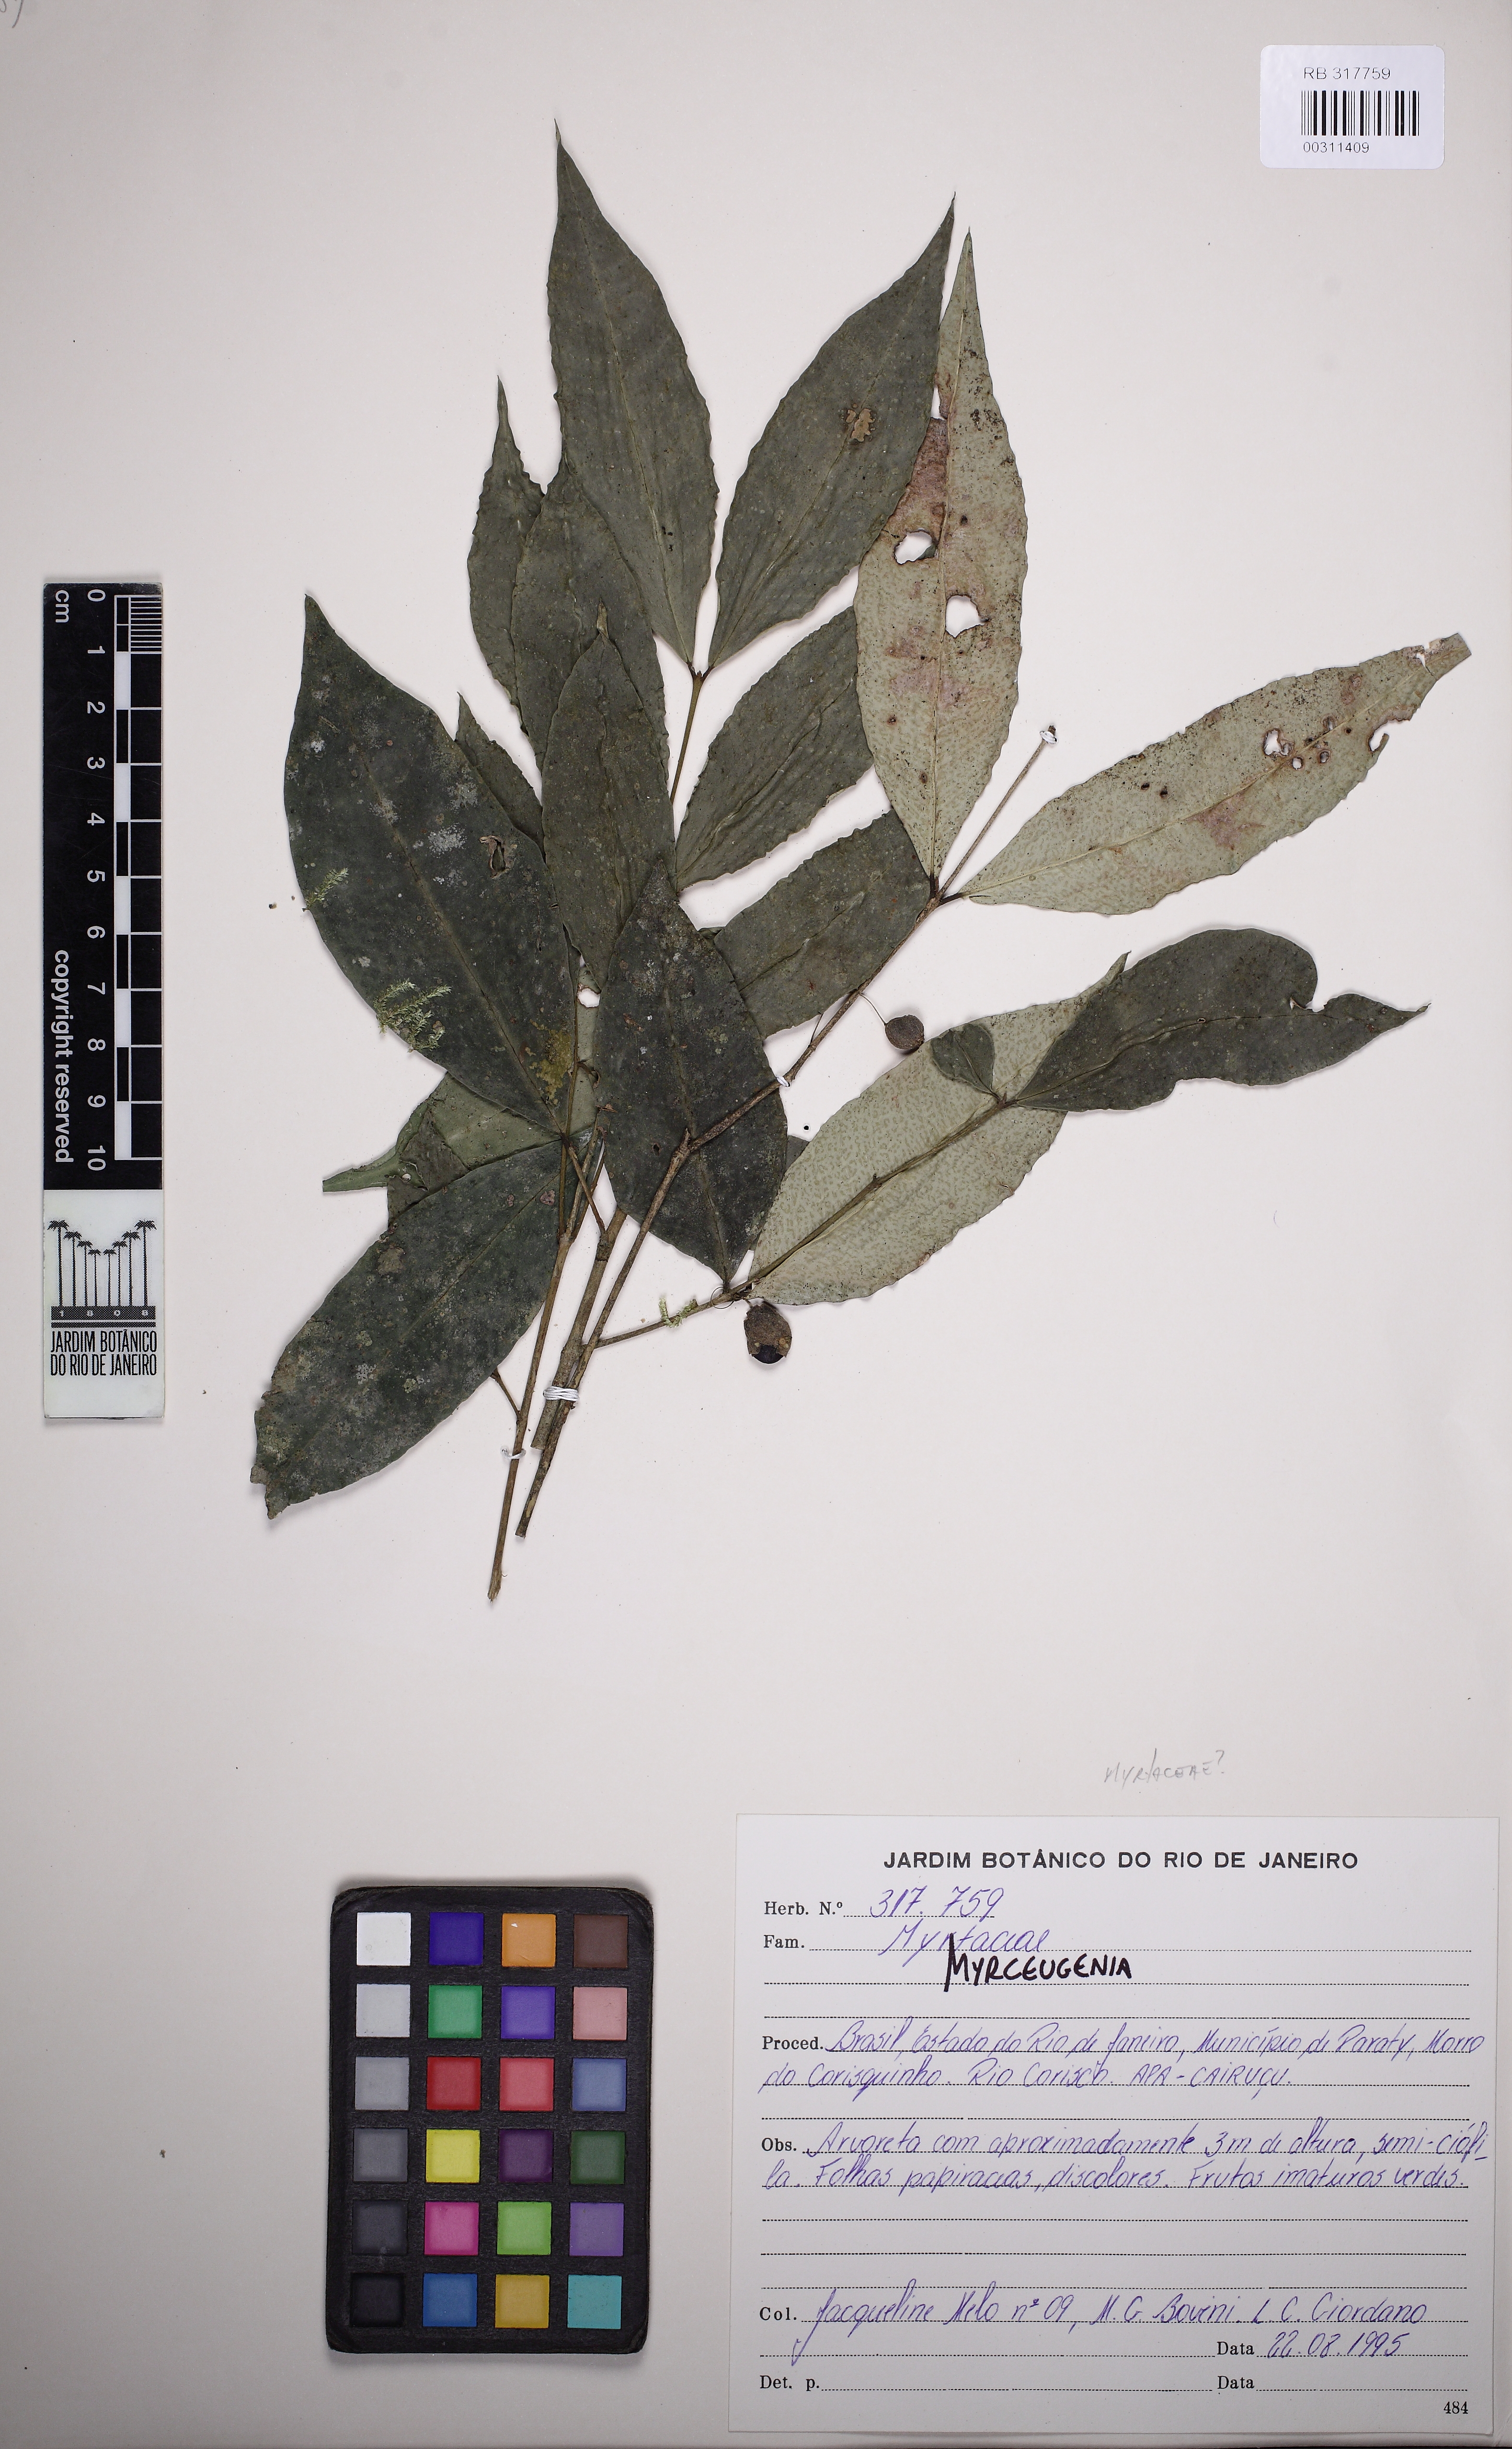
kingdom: Plantae
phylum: Tracheophyta
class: Magnoliopsida
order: Myrtales
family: Myrtaceae
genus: Myrceugenia
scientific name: Myrceugenia glaucescens
